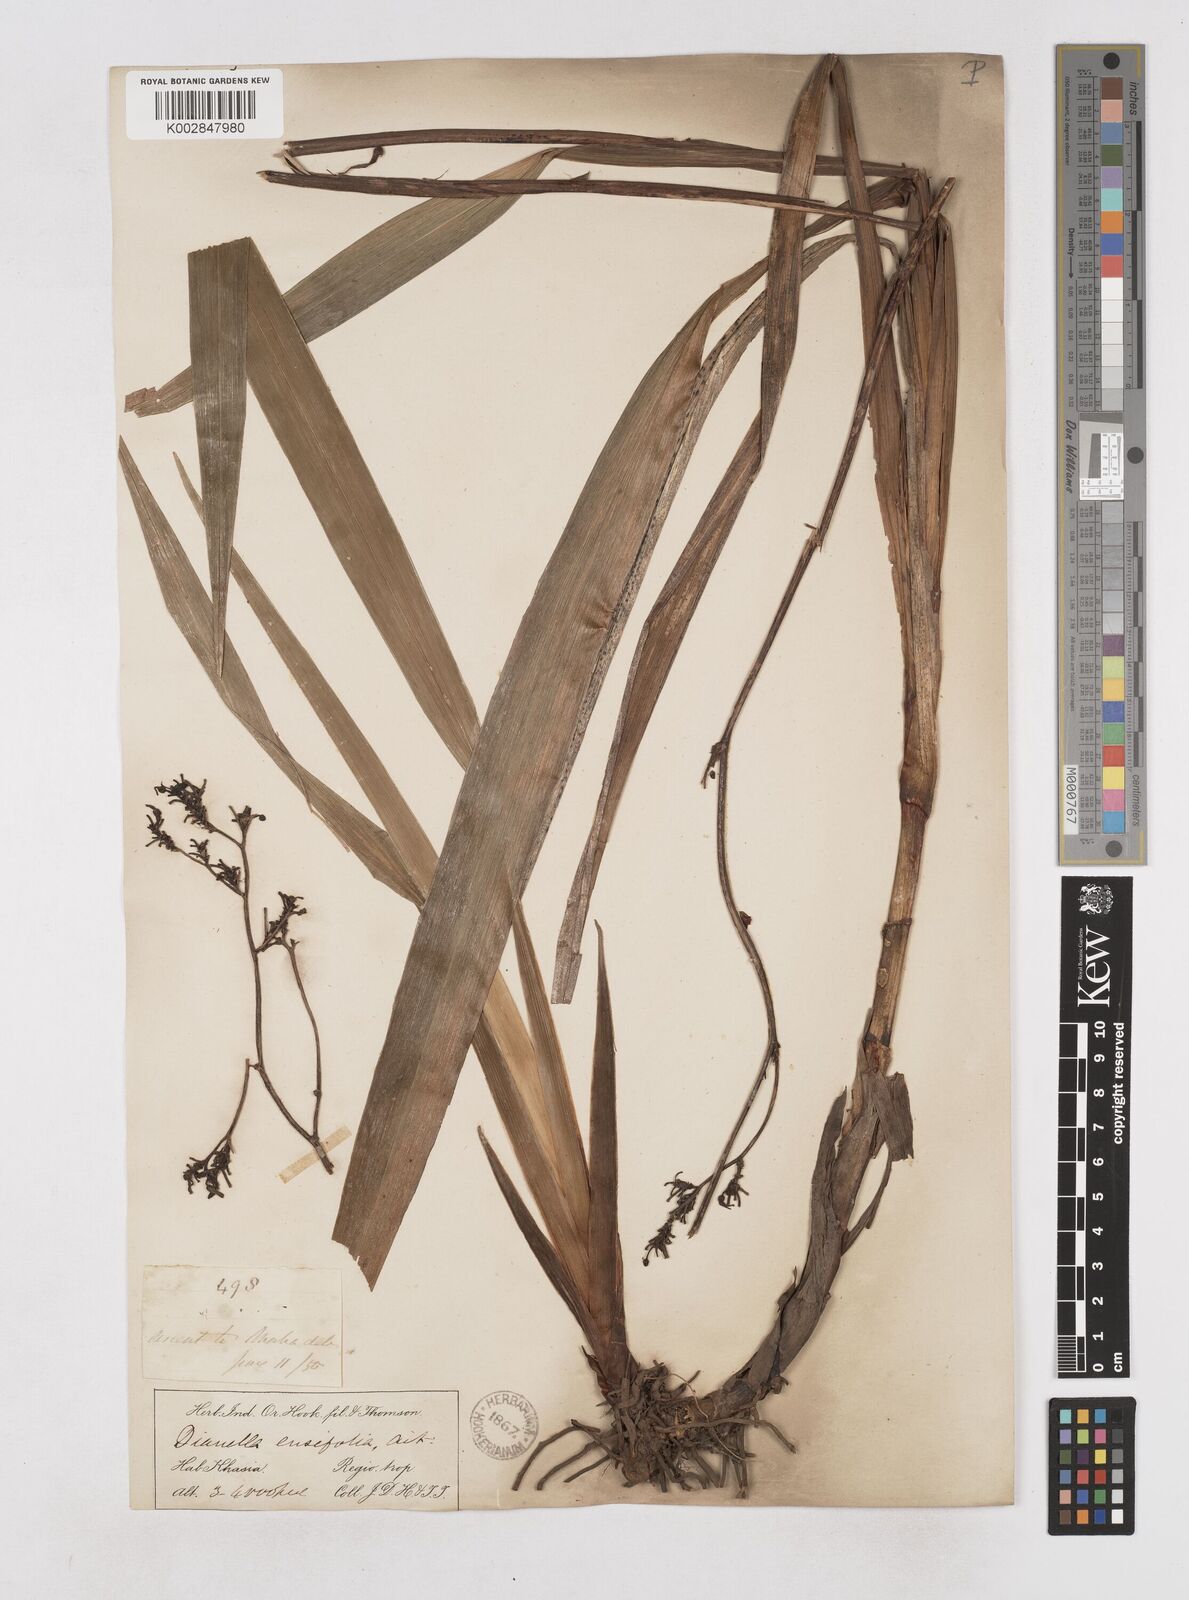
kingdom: Plantae
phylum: Tracheophyta
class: Liliopsida
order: Asparagales
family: Asphodelaceae
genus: Dianella
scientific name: Dianella ensifolia
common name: New zealand lilyplant
